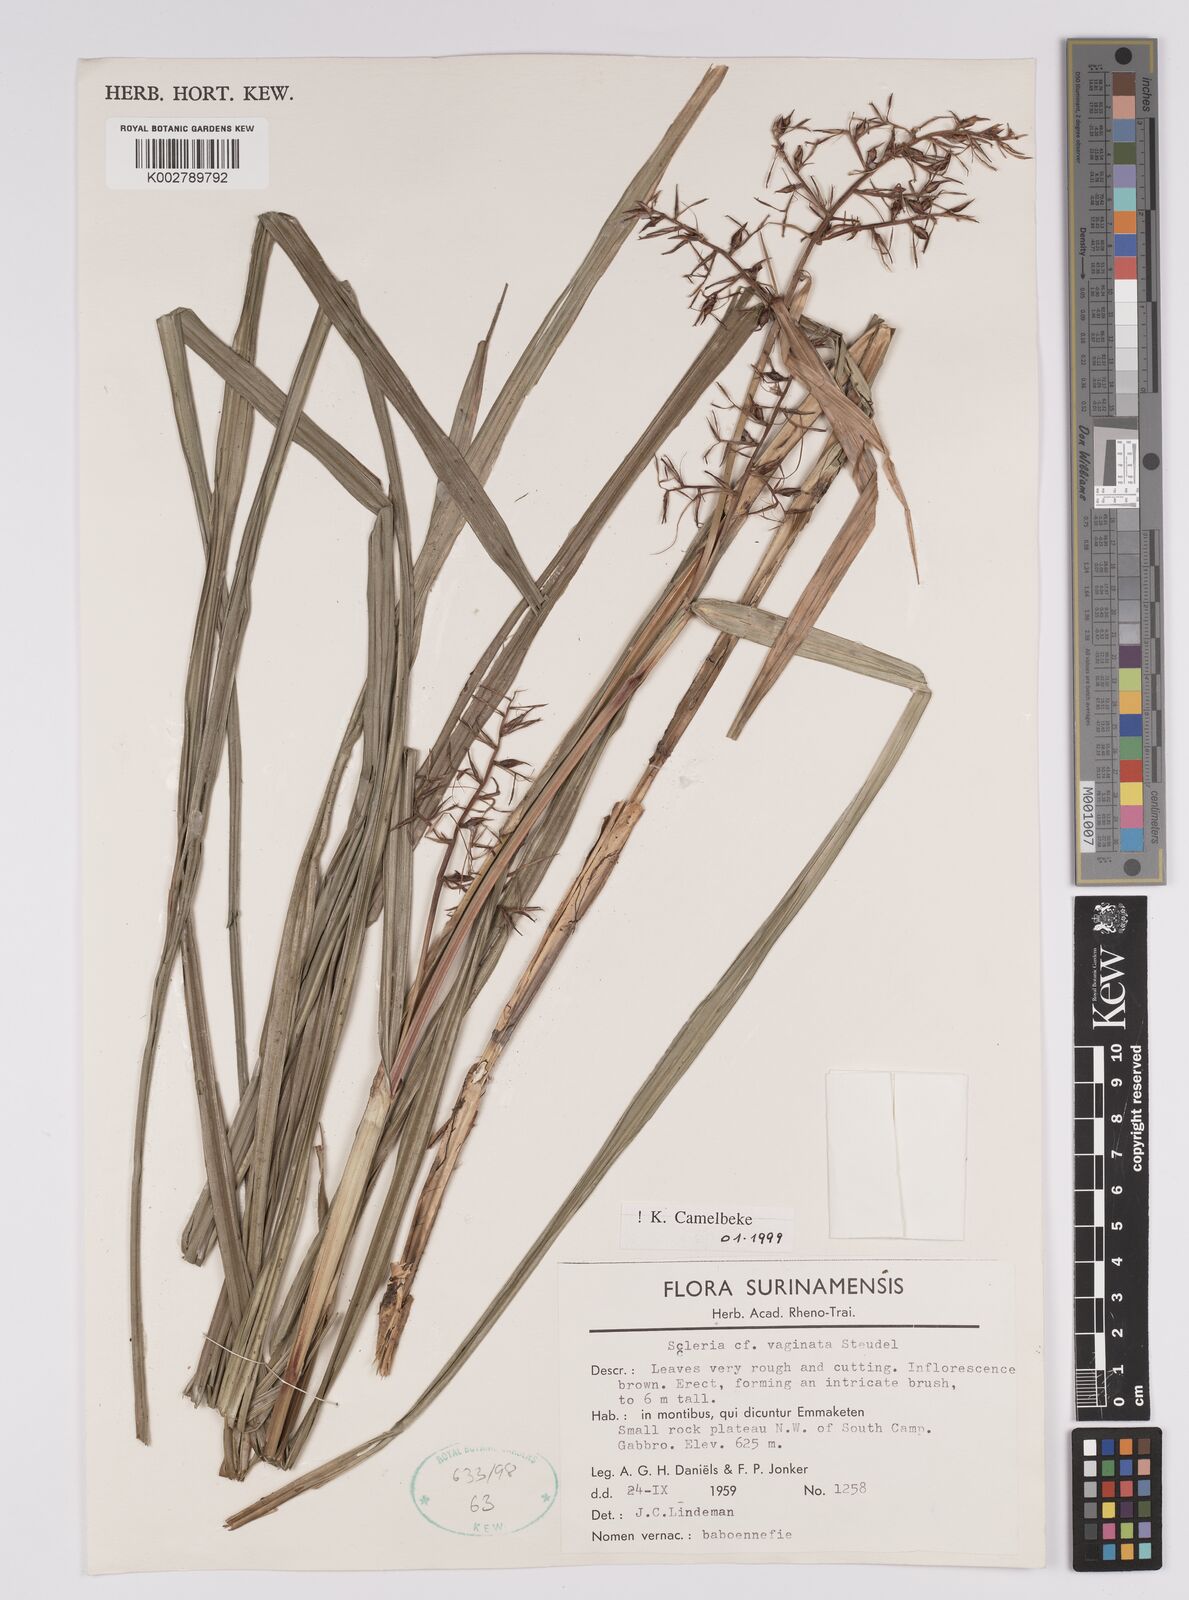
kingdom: Plantae
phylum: Tracheophyta
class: Liliopsida
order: Poales
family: Cyperaceae
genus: Scleria
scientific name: Scleria vaginata
